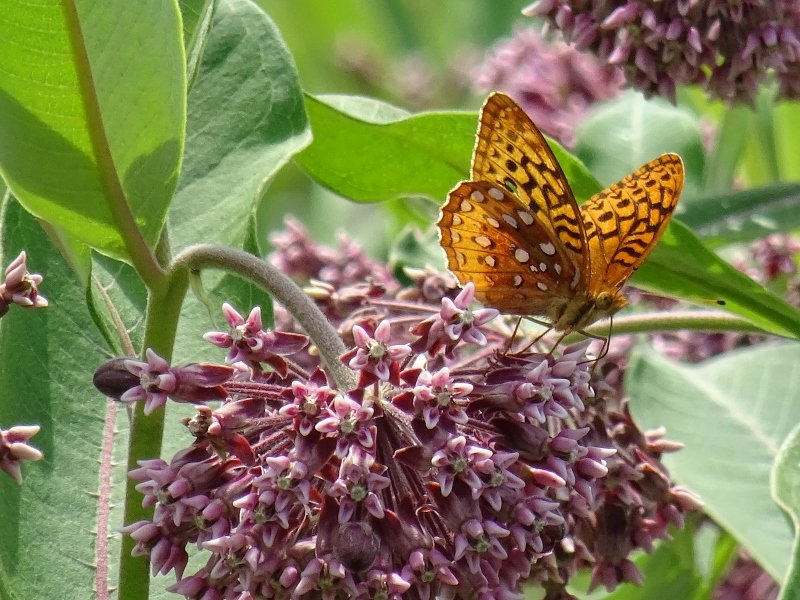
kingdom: Animalia
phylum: Arthropoda
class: Insecta
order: Lepidoptera
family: Nymphalidae
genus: Speyeria
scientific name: Speyeria cybele
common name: Great Spangled Fritillary
